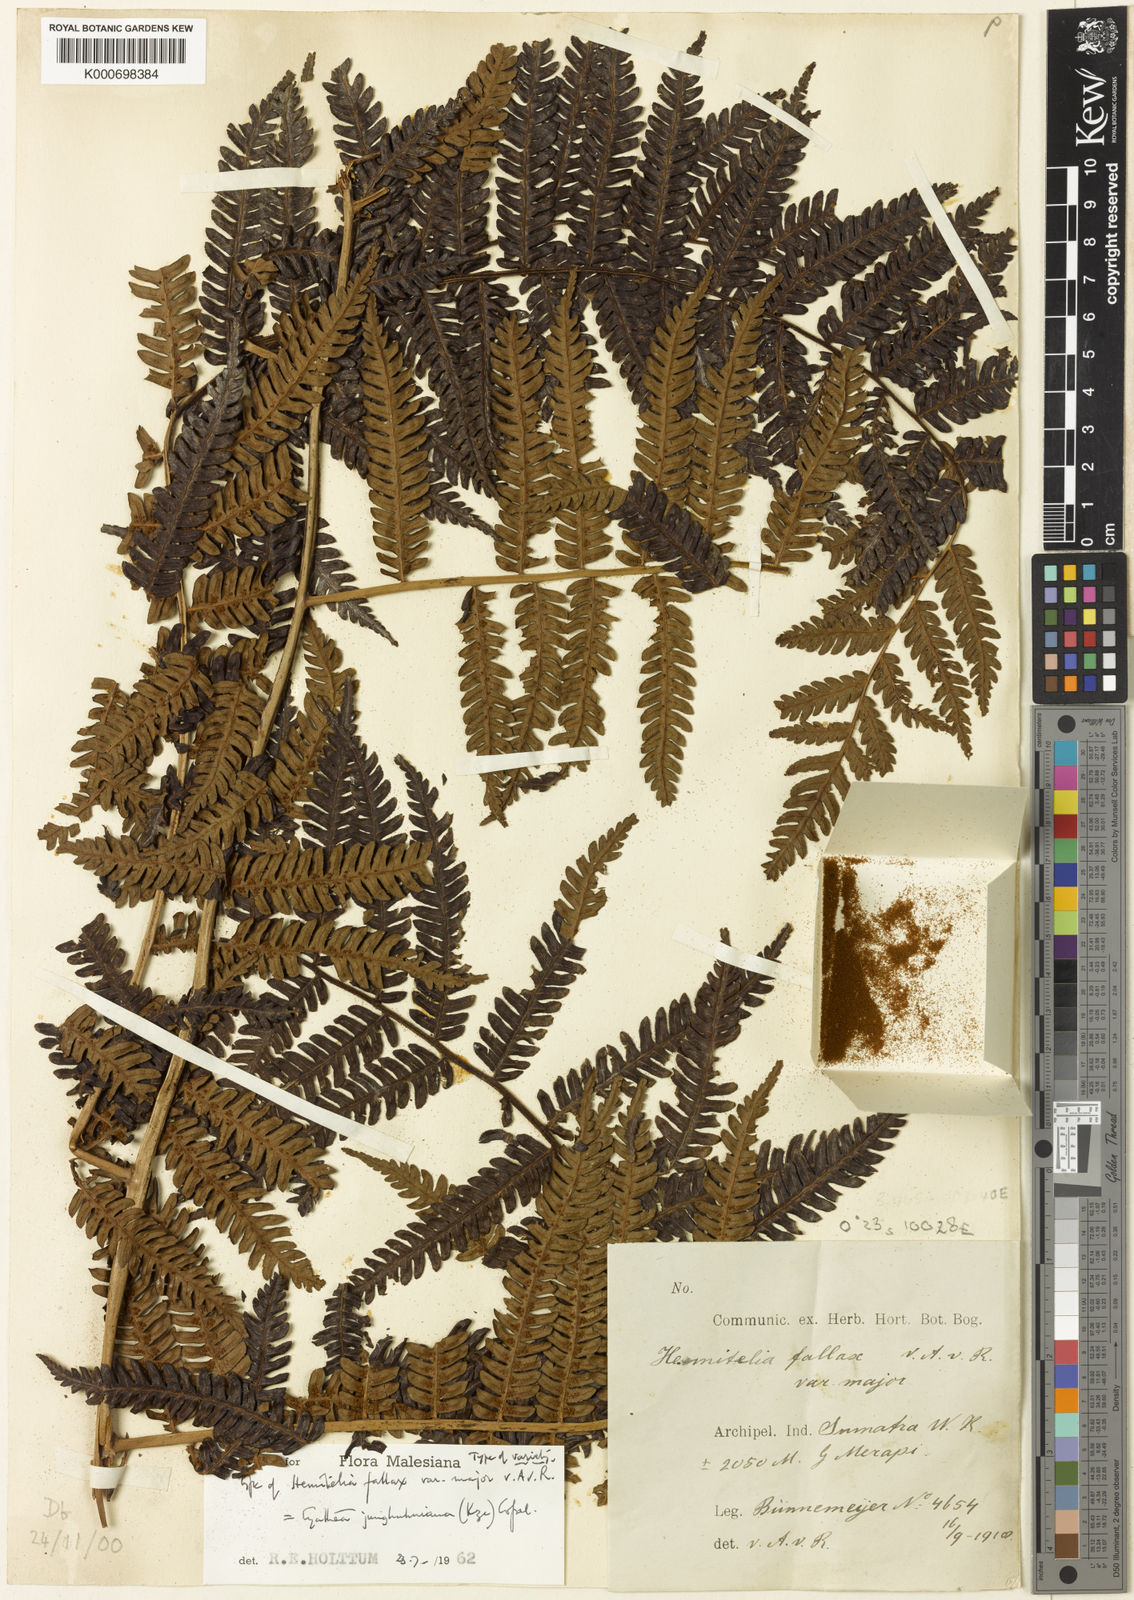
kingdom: Plantae
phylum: Tracheophyta
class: Polypodiopsida
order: Cyatheales
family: Cyatheaceae
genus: Alsophila
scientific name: Alsophila junghuhniana
